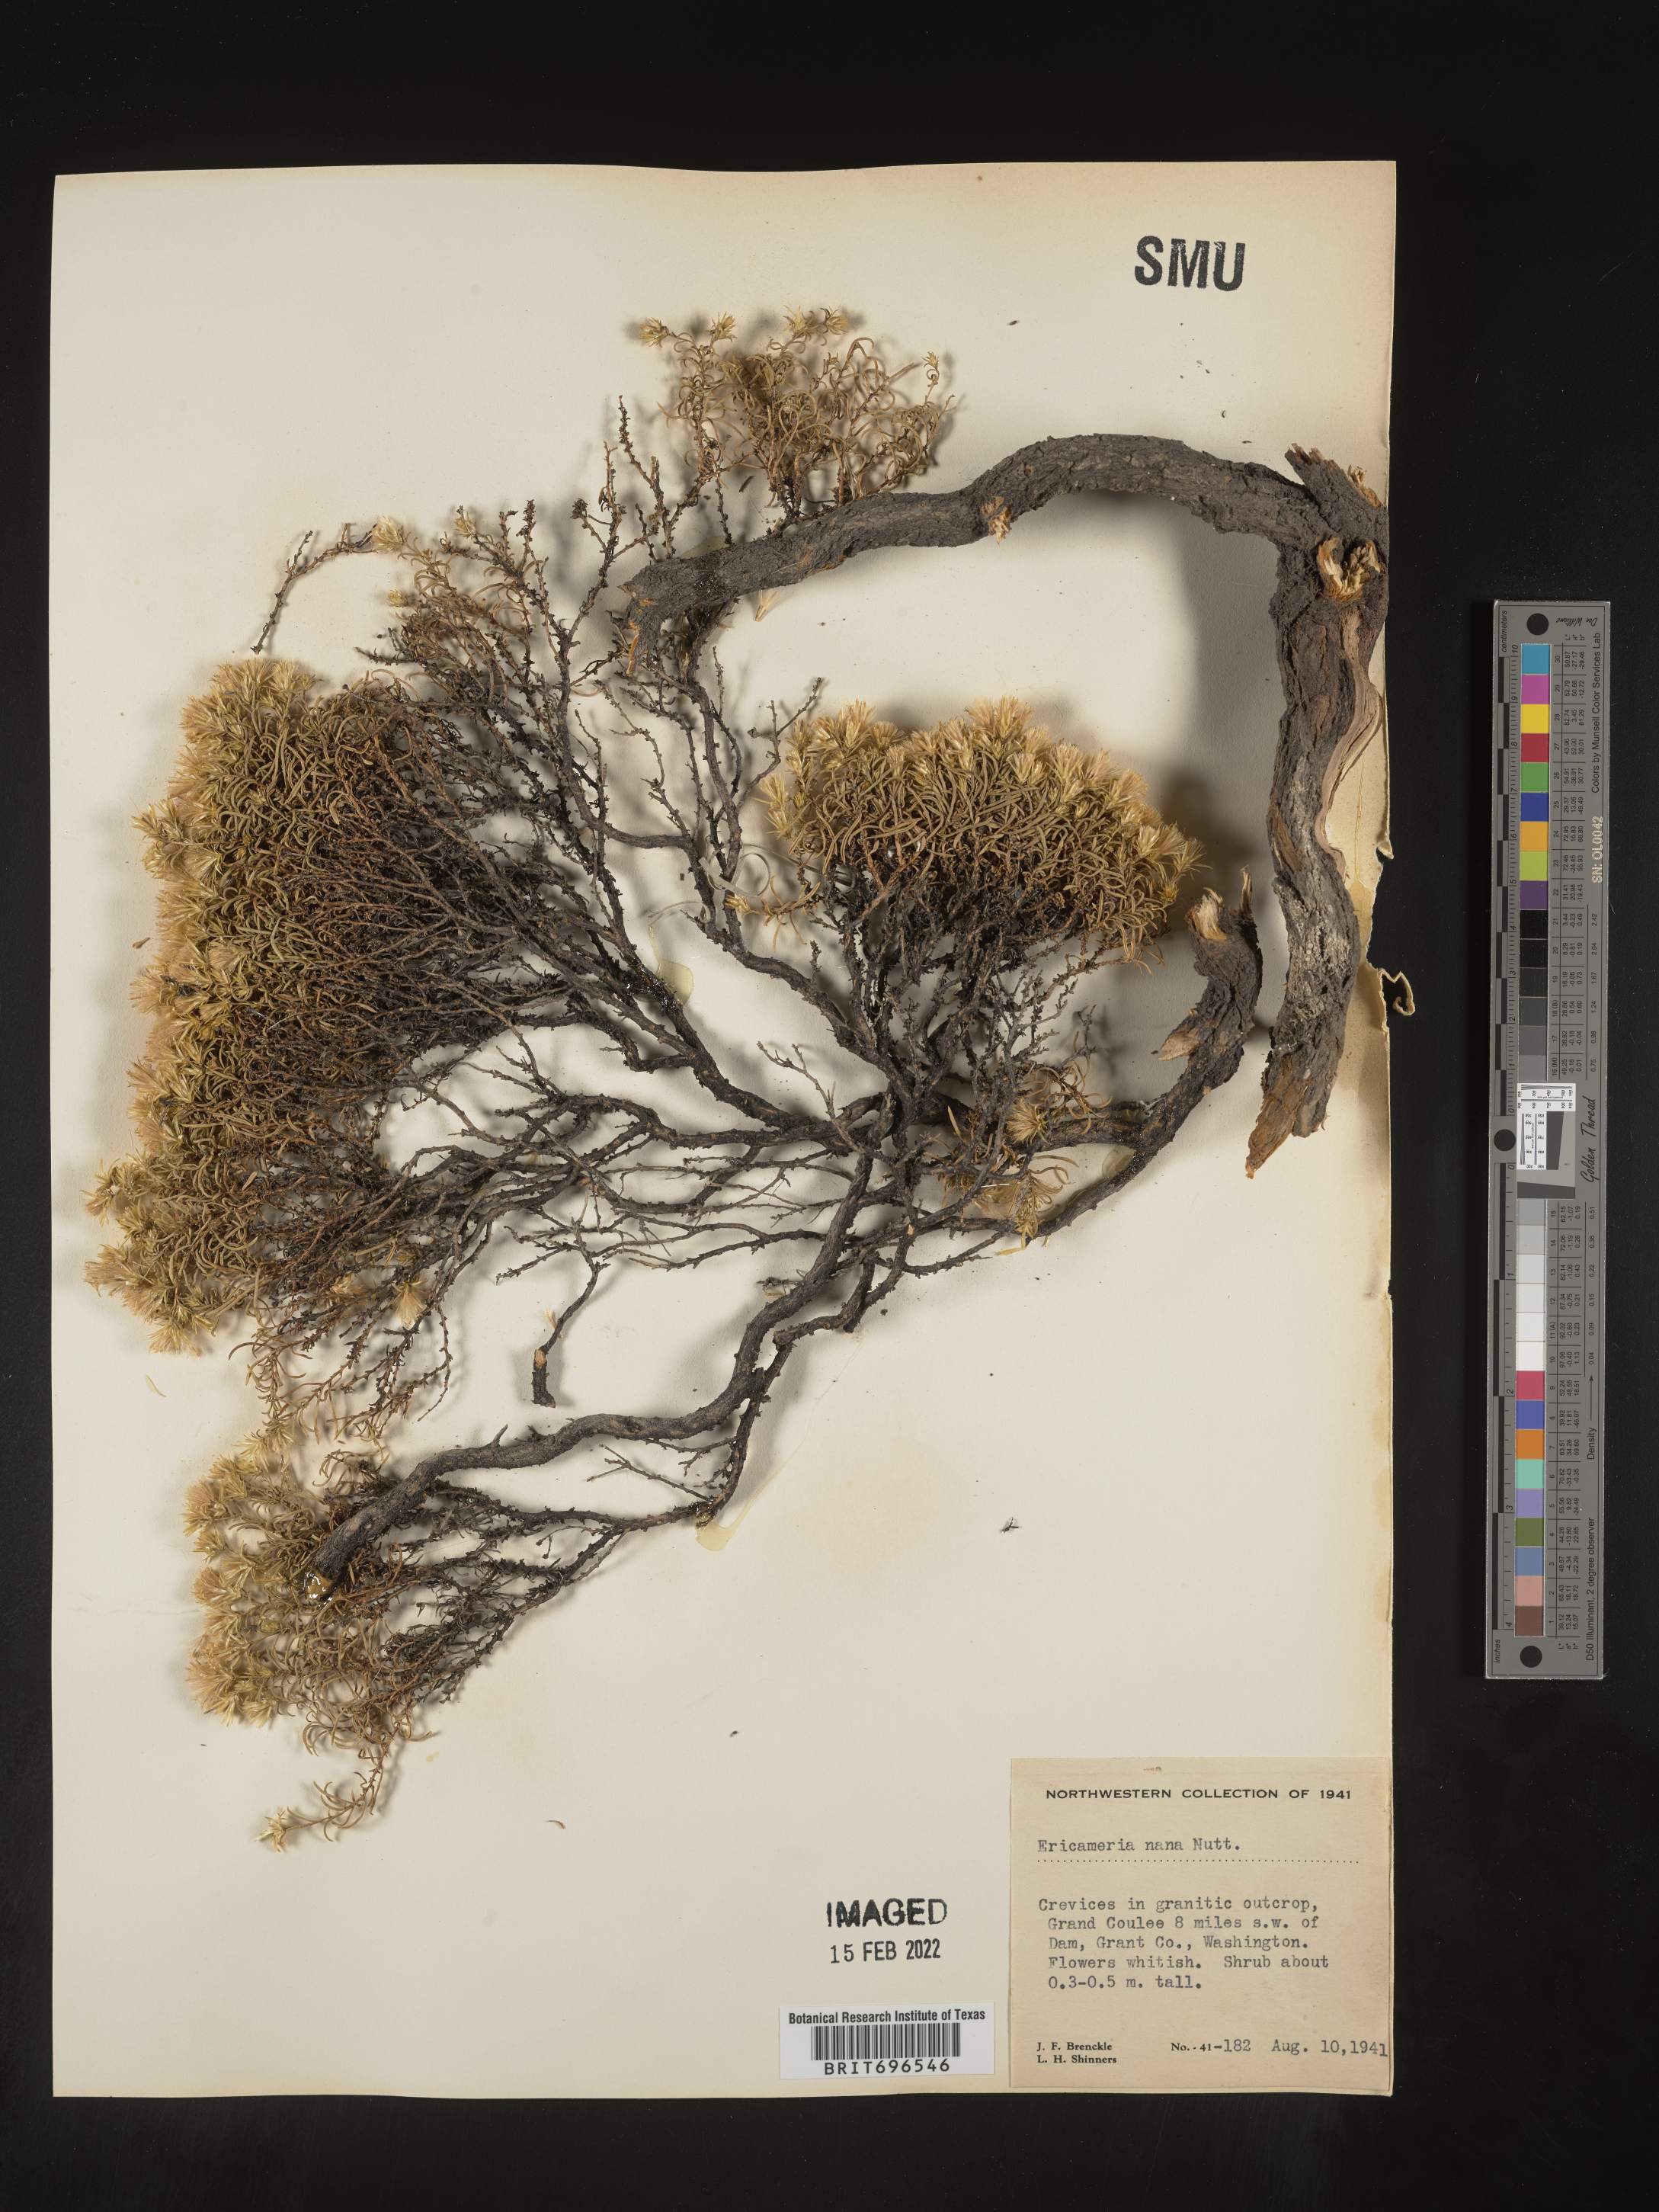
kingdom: Plantae
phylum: Tracheophyta
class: Magnoliopsida
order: Asterales
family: Asteraceae
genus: Ericameria
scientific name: Ericameria nana
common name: Dwarf goldenbush
